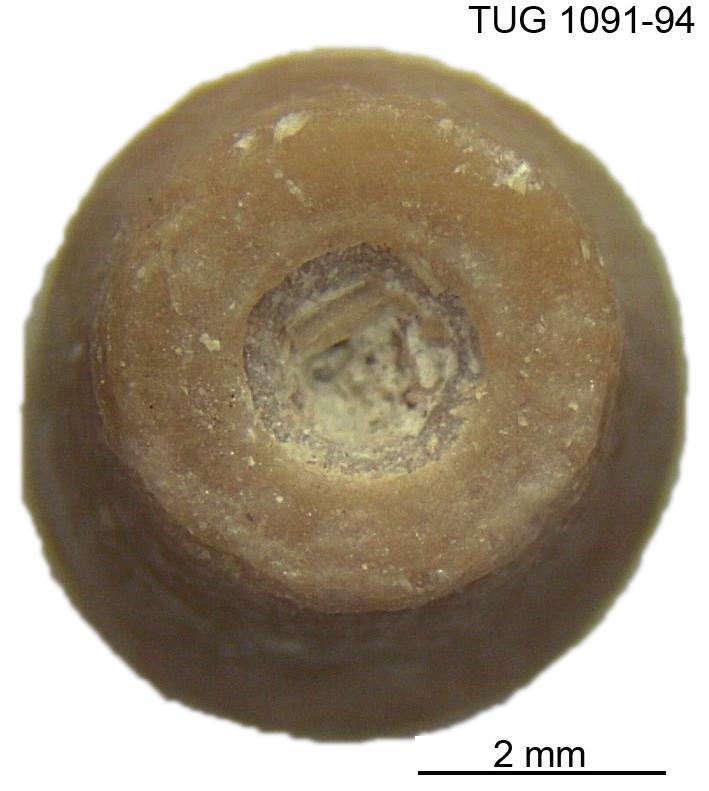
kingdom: Animalia
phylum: Echinodermata
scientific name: Echinodermata
